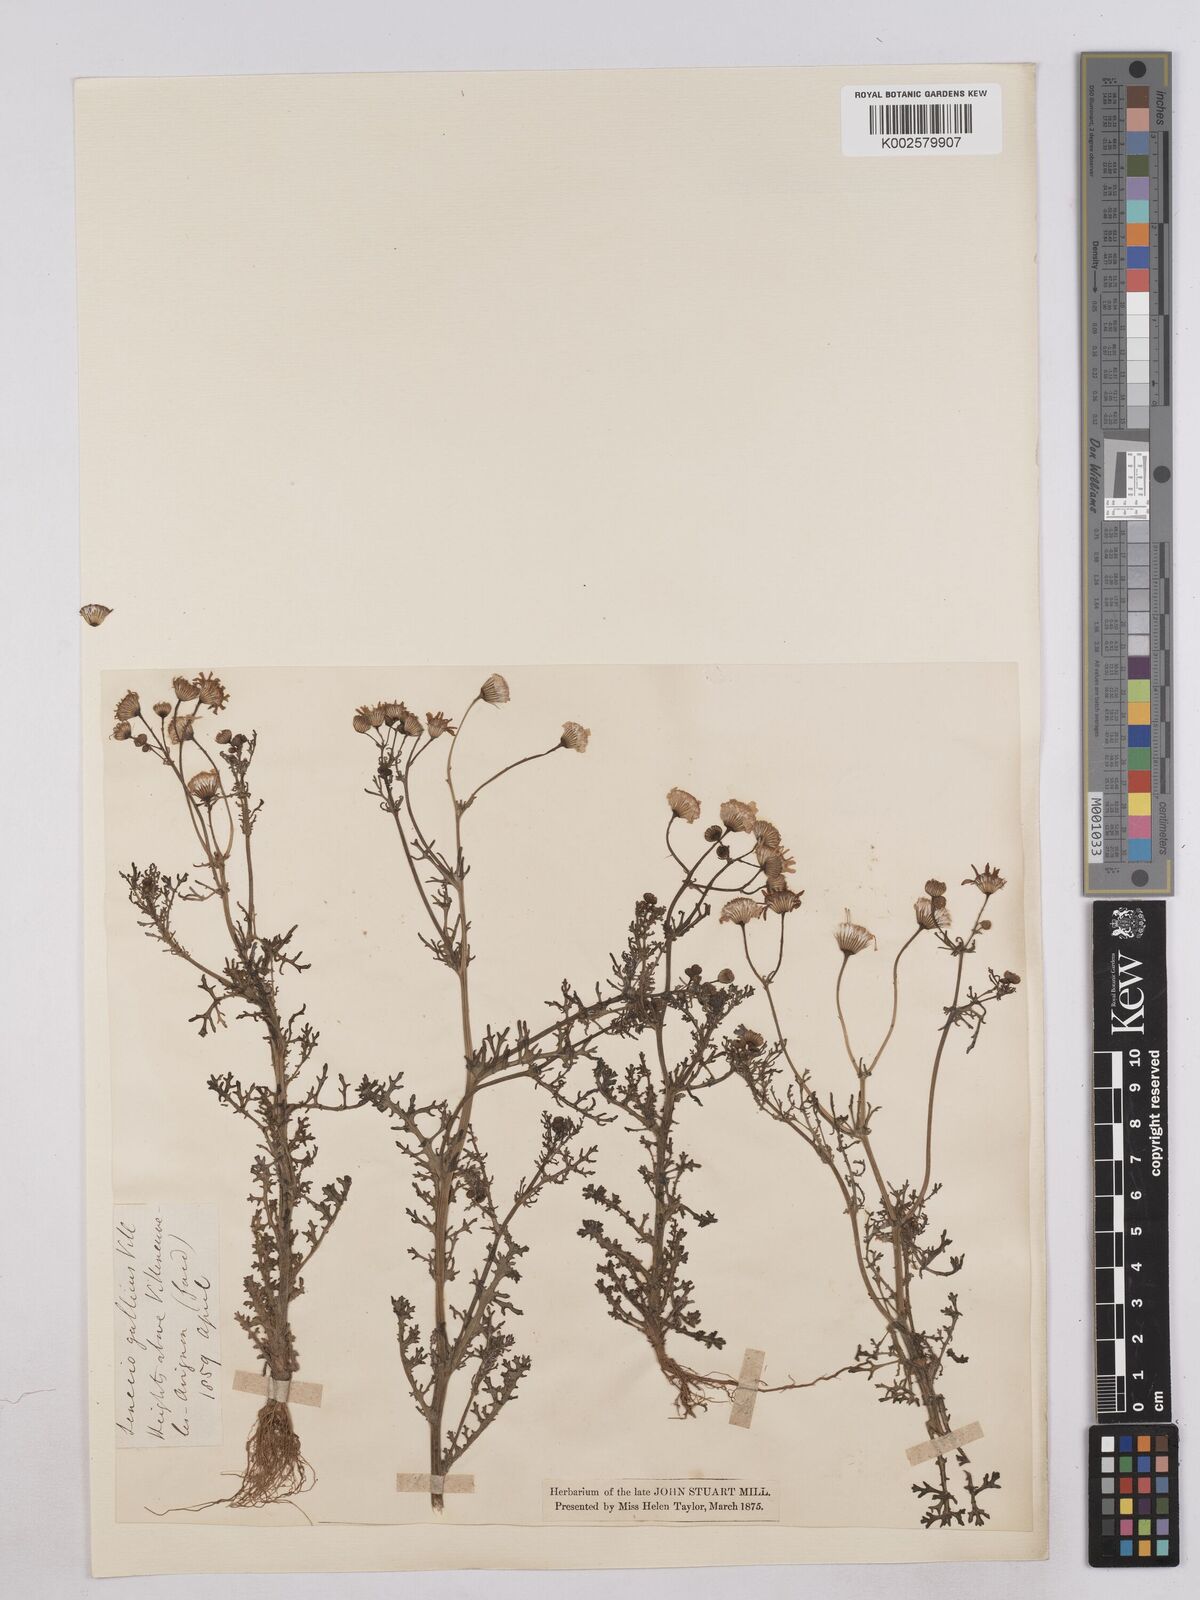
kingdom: Plantae
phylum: Tracheophyta
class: Magnoliopsida
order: Asterales
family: Asteraceae
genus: Senecio
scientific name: Senecio gallicus
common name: French groundsel
